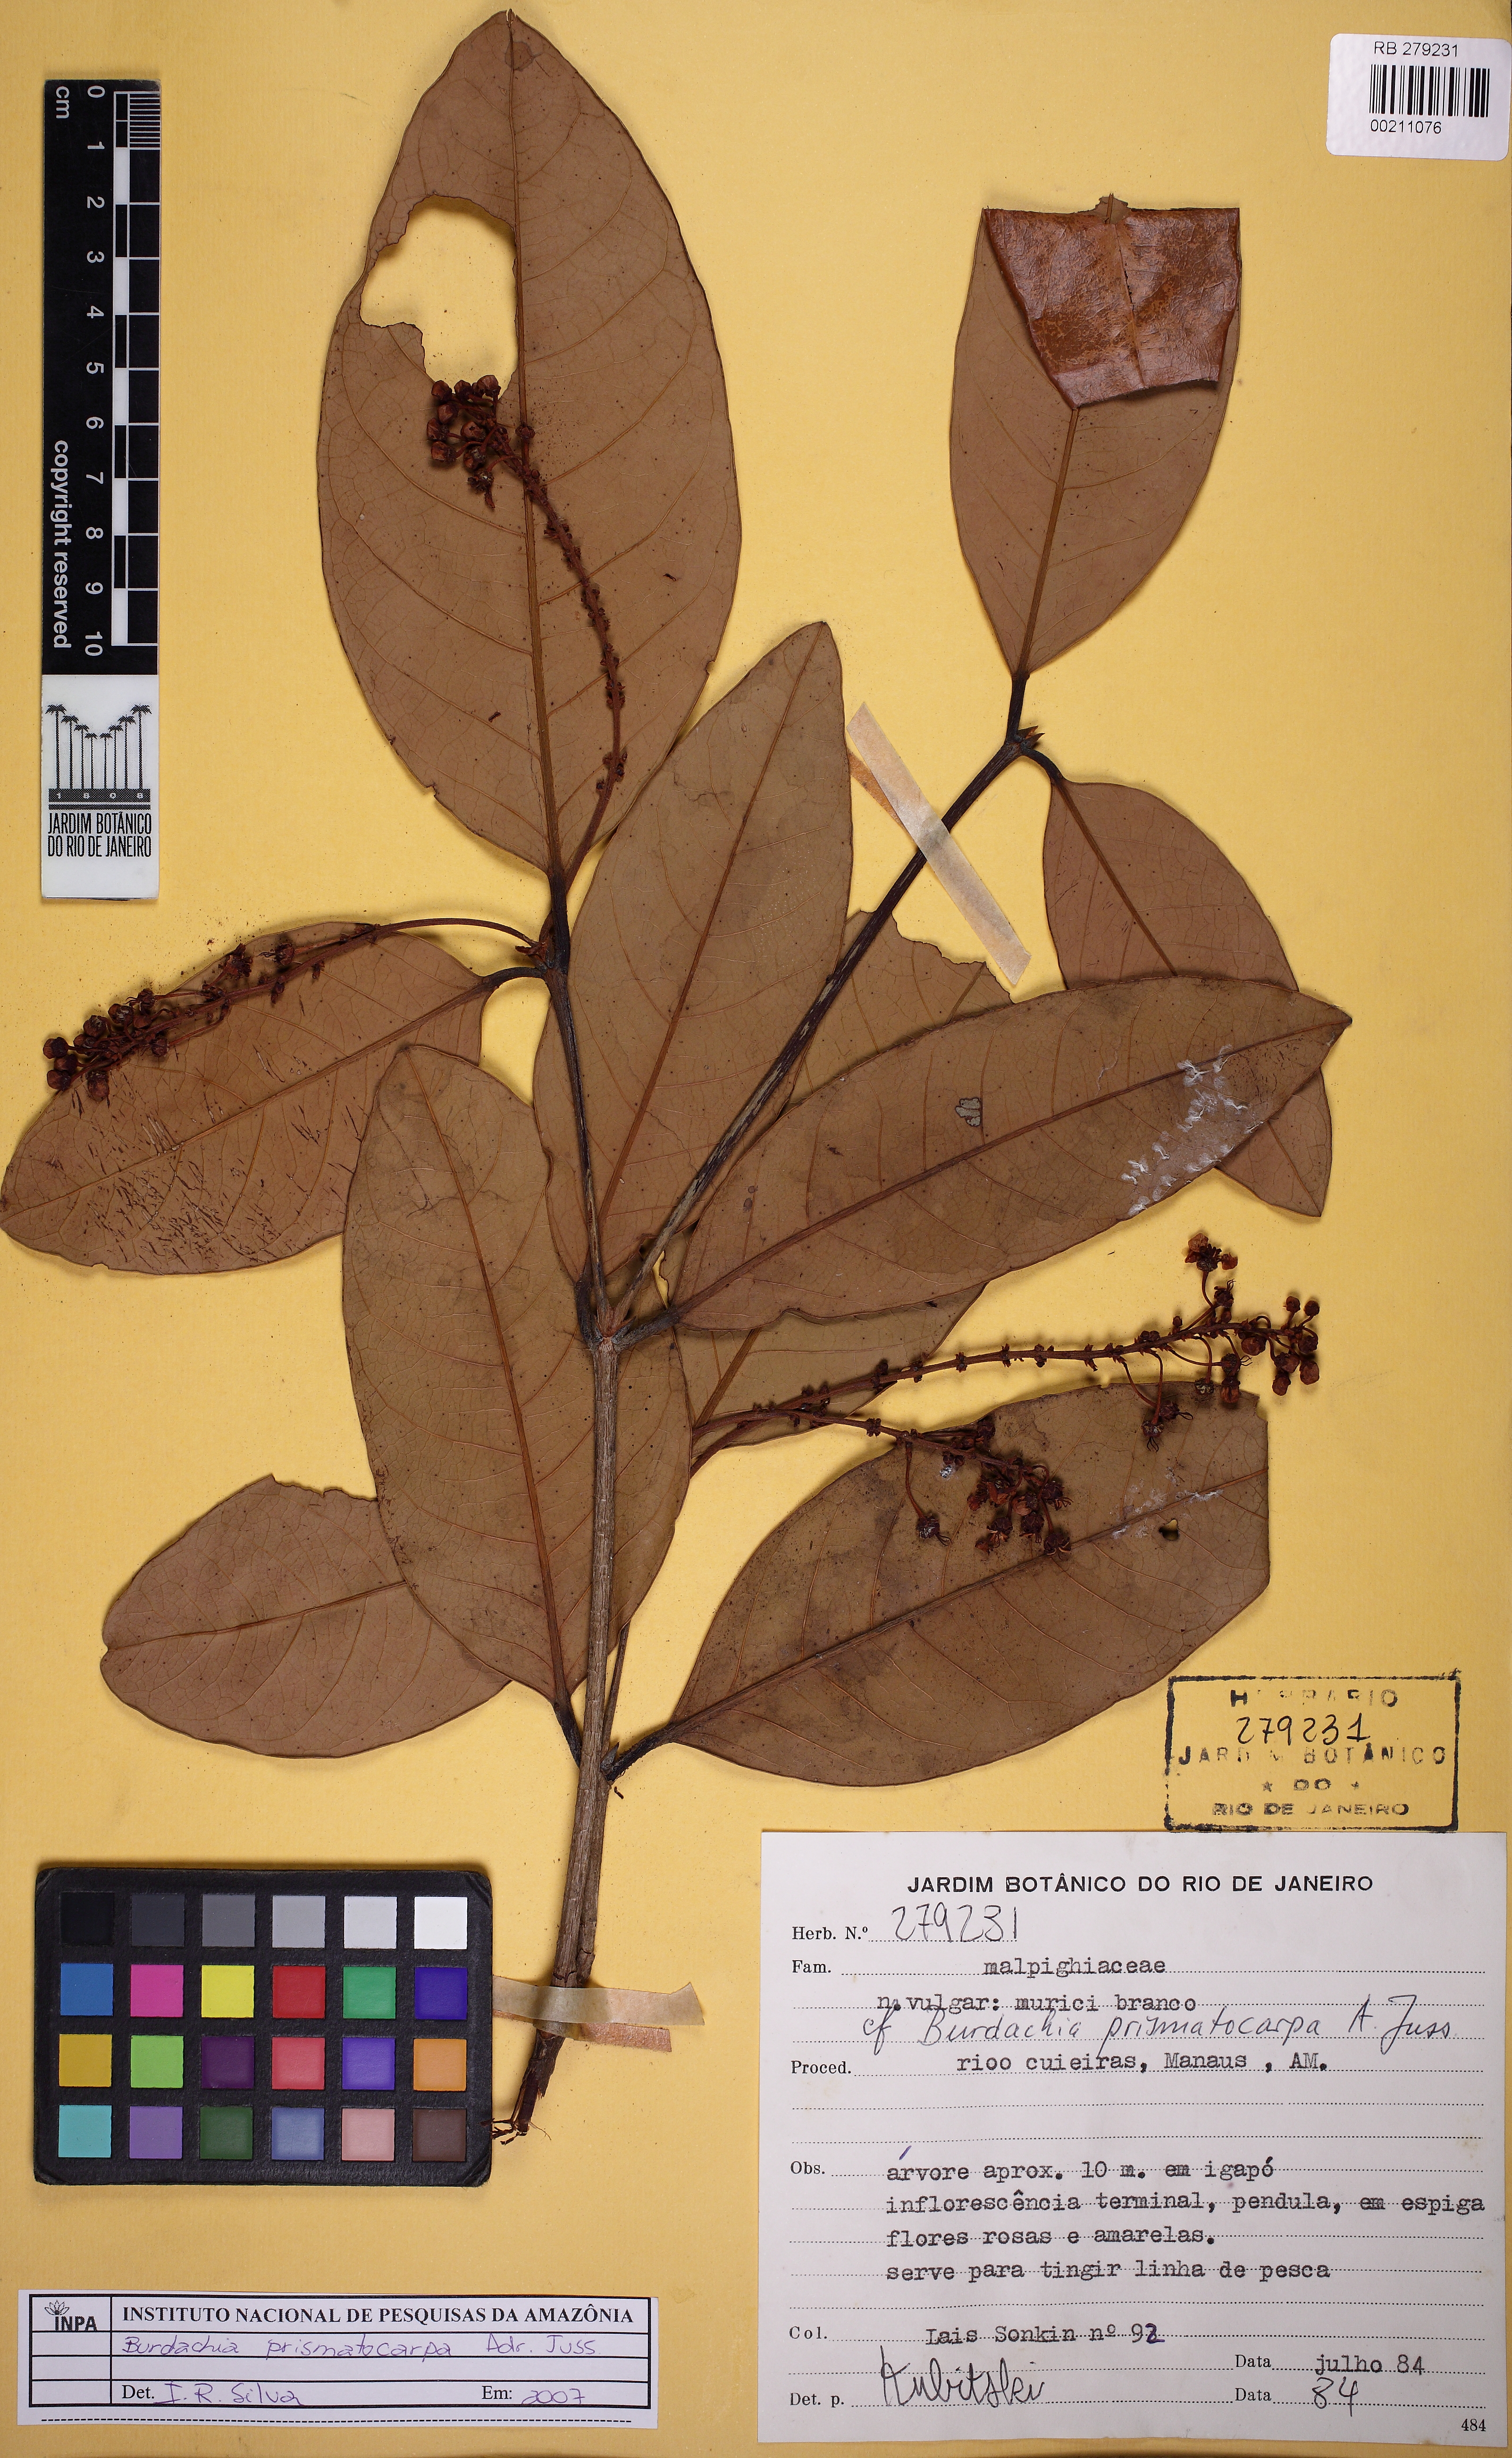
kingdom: Plantae
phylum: Tracheophyta
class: Magnoliopsida
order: Malpighiales
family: Malpighiaceae
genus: Burdachia
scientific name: Burdachia prismatocarpa
